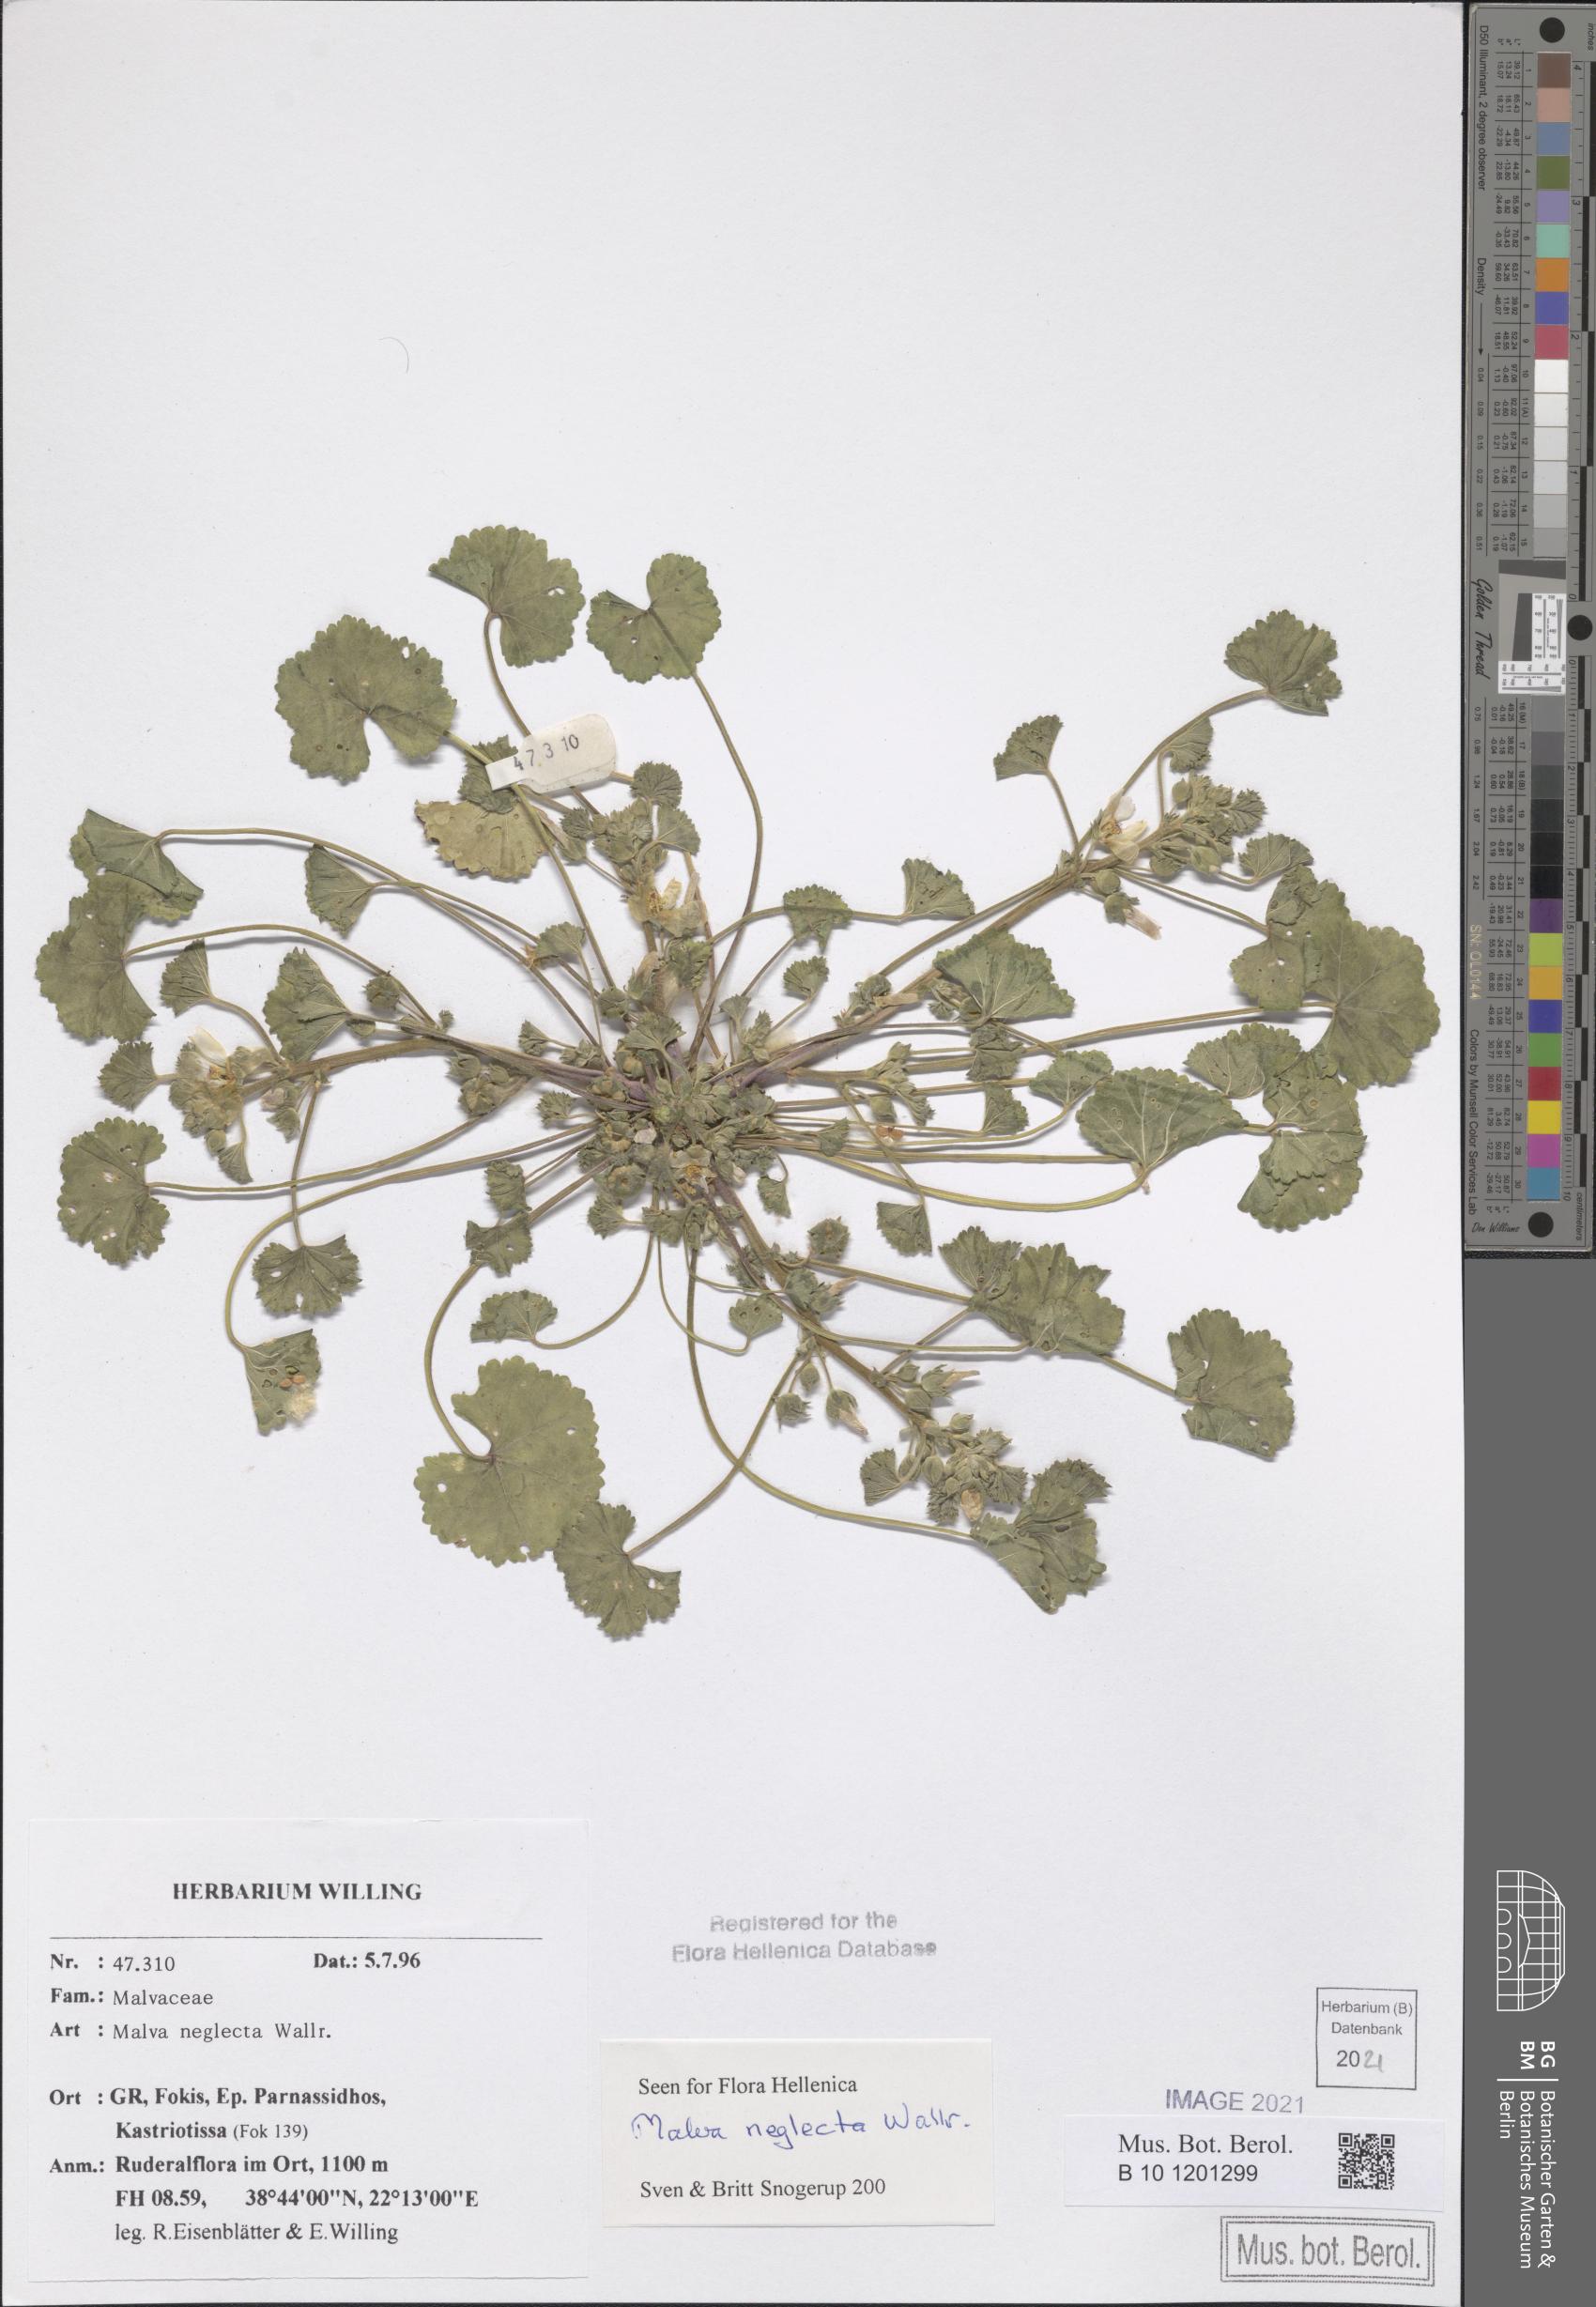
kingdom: Plantae
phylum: Tracheophyta
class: Magnoliopsida
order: Malvales
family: Malvaceae
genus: Malva
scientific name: Malva neglecta
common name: Common mallow
